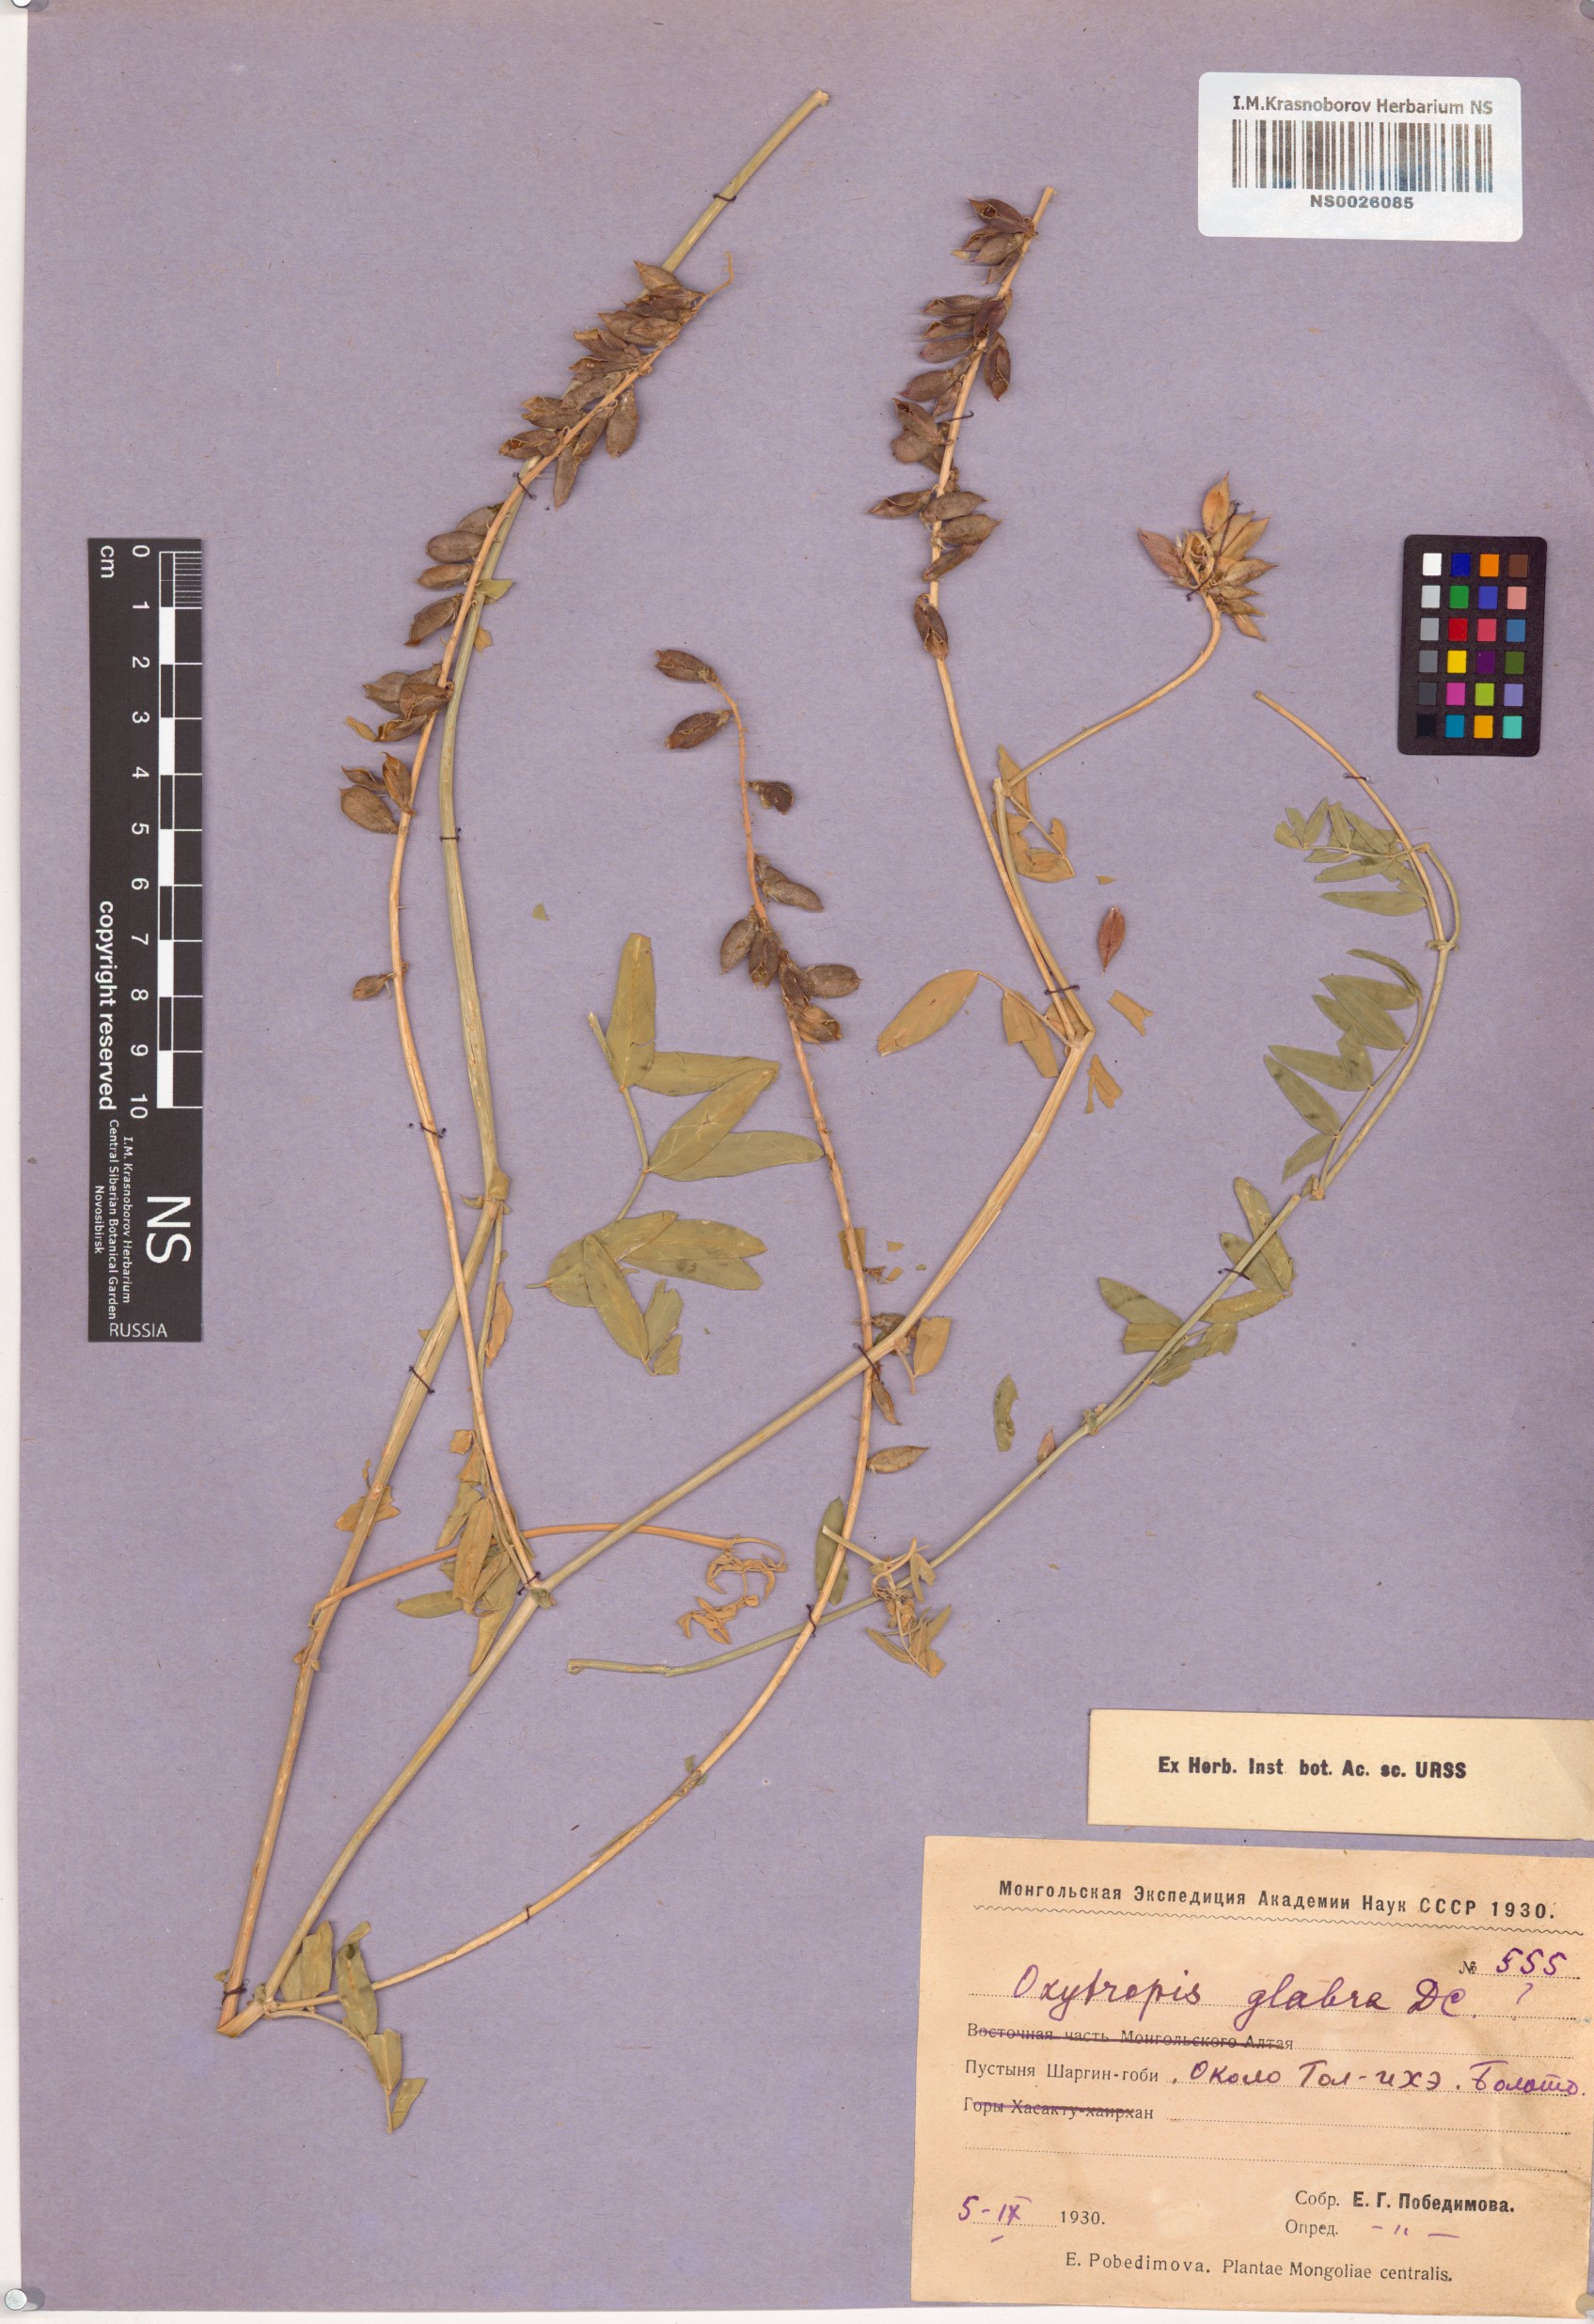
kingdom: Plantae
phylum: Tracheophyta
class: Magnoliopsida
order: Fabales
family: Fabaceae
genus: Oxytropis
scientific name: Oxytropis glabra
